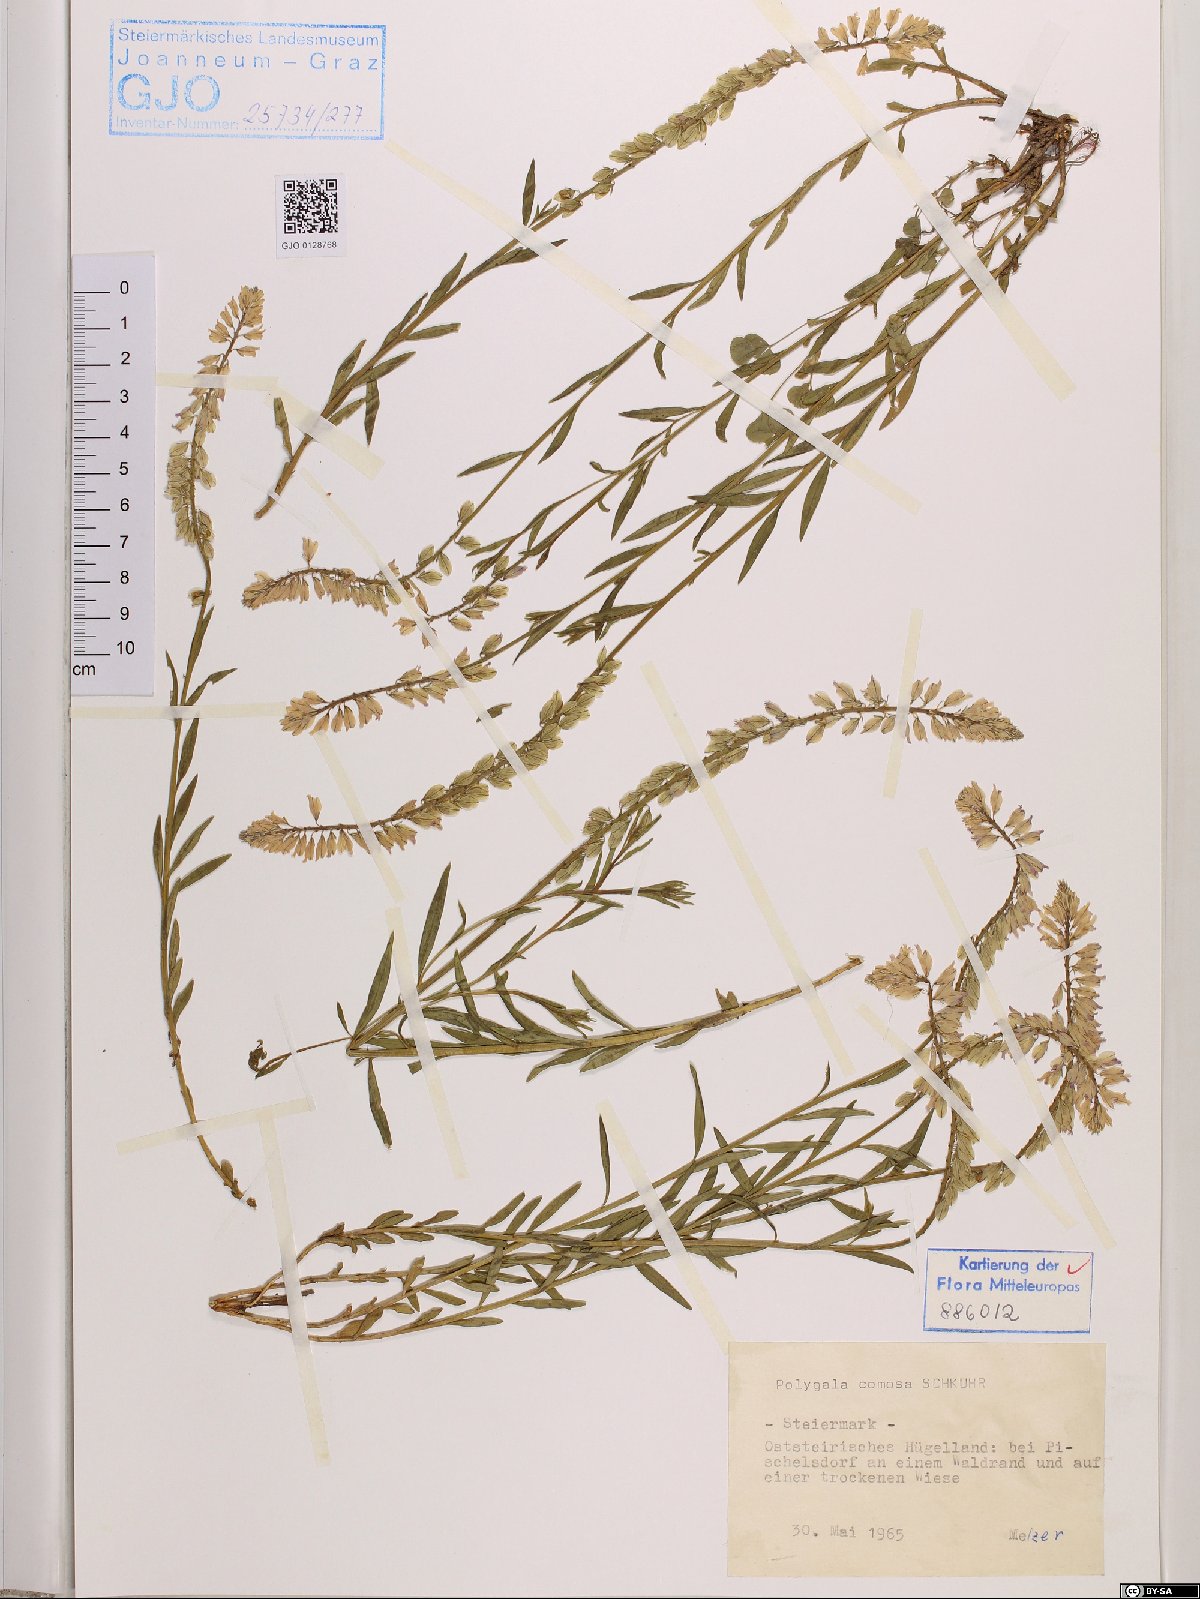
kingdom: Plantae
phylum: Tracheophyta
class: Magnoliopsida
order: Fabales
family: Polygalaceae
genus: Polygala
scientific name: Polygala comosa
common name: Tufted milkwort
